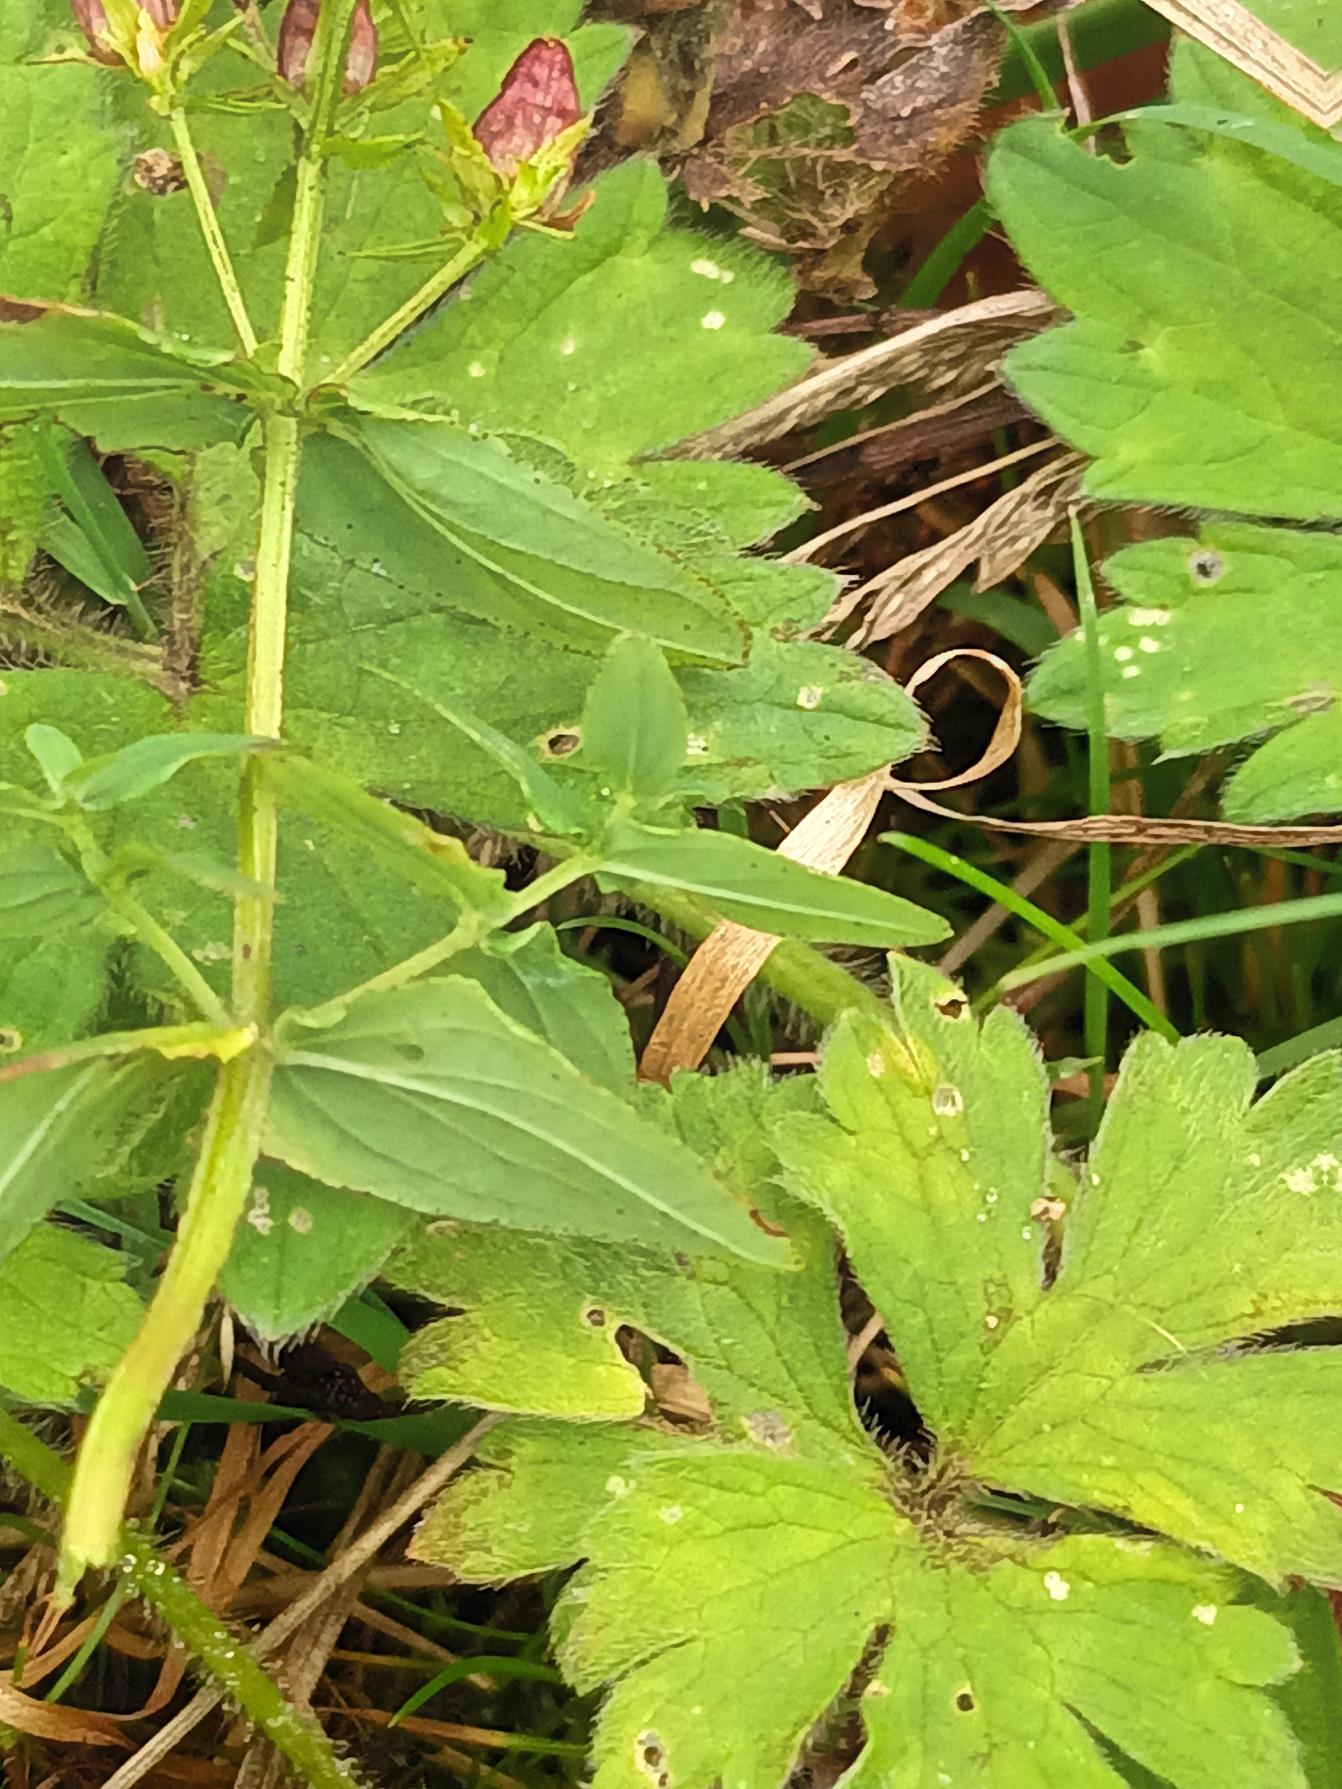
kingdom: Plantae
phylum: Tracheophyta
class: Magnoliopsida
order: Malpighiales
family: Hypericaceae
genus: Hypericum
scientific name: Hypericum tetrapterum
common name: Vinget perikon
